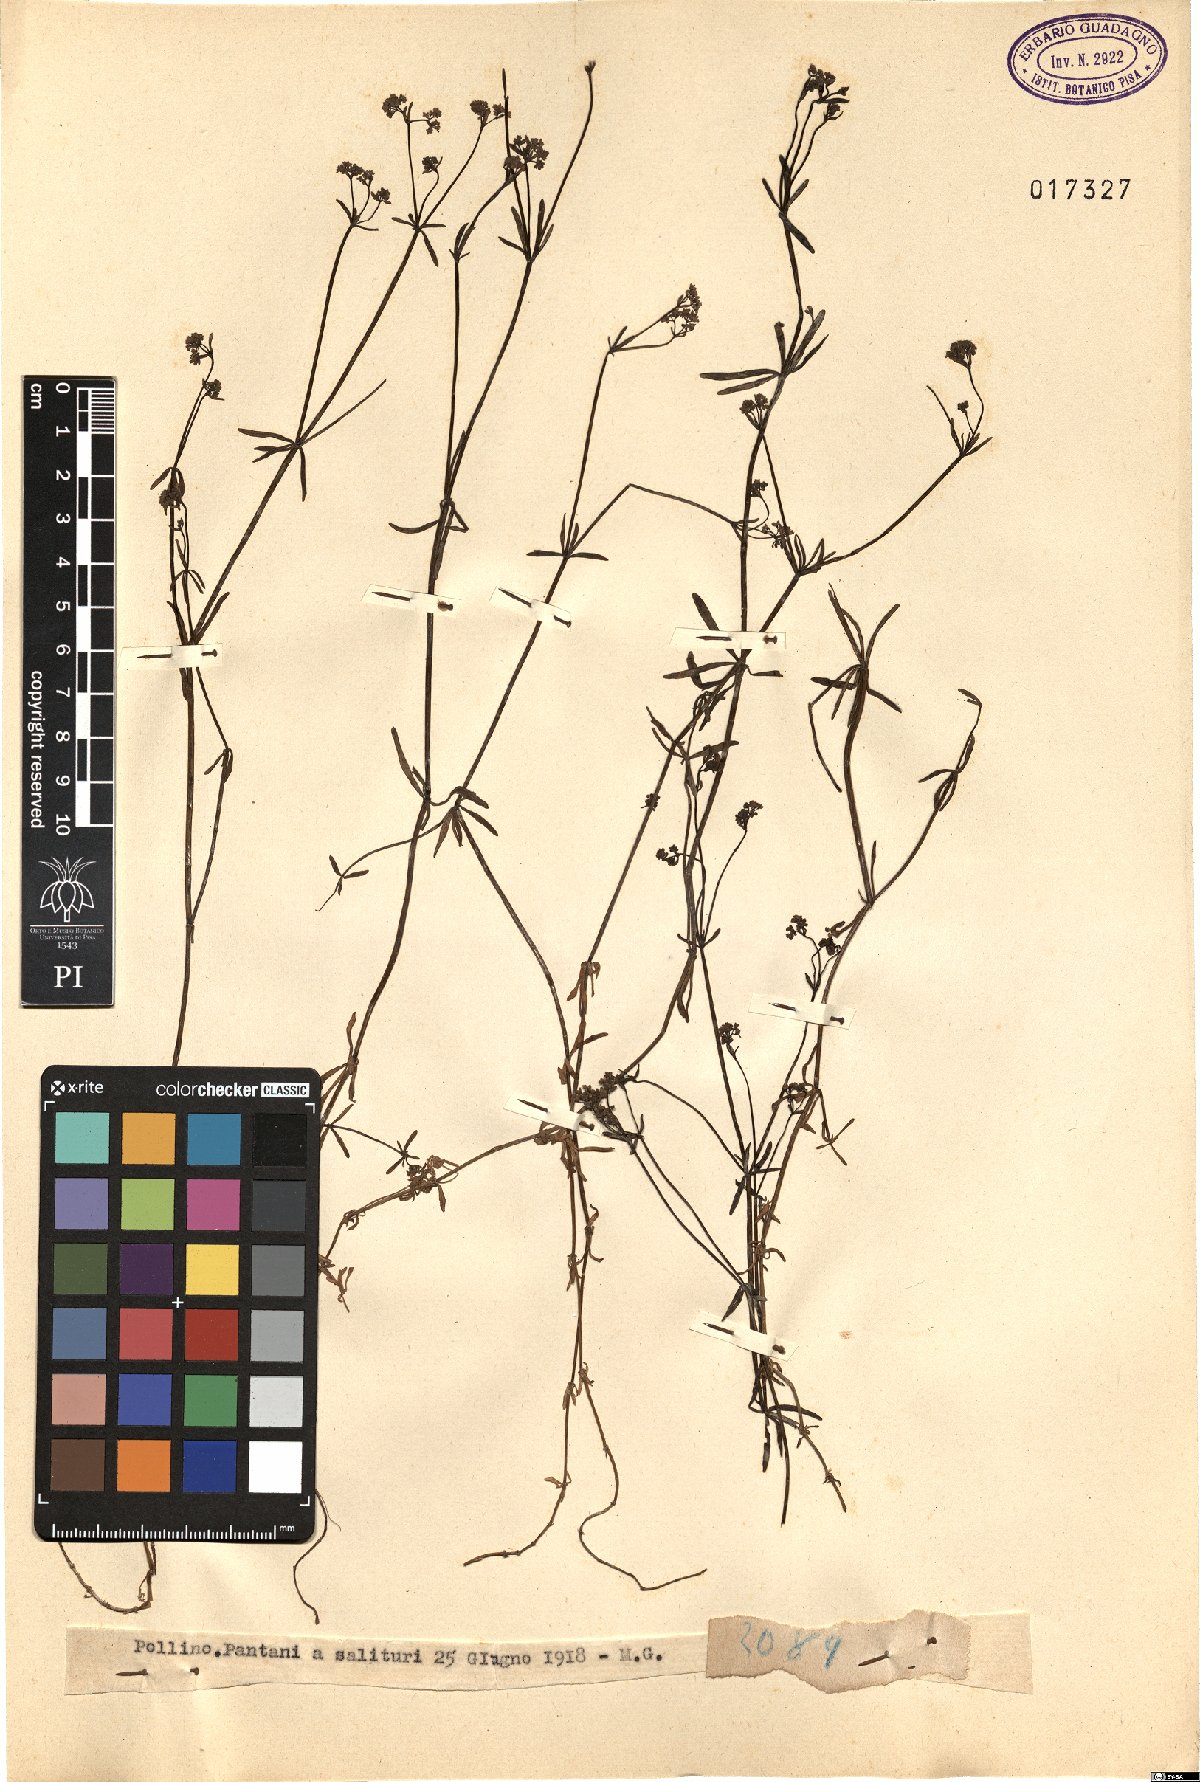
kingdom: Plantae
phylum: Tracheophyta
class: Magnoliopsida
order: Gentianales
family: Rubiaceae
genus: Galium
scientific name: Galium
